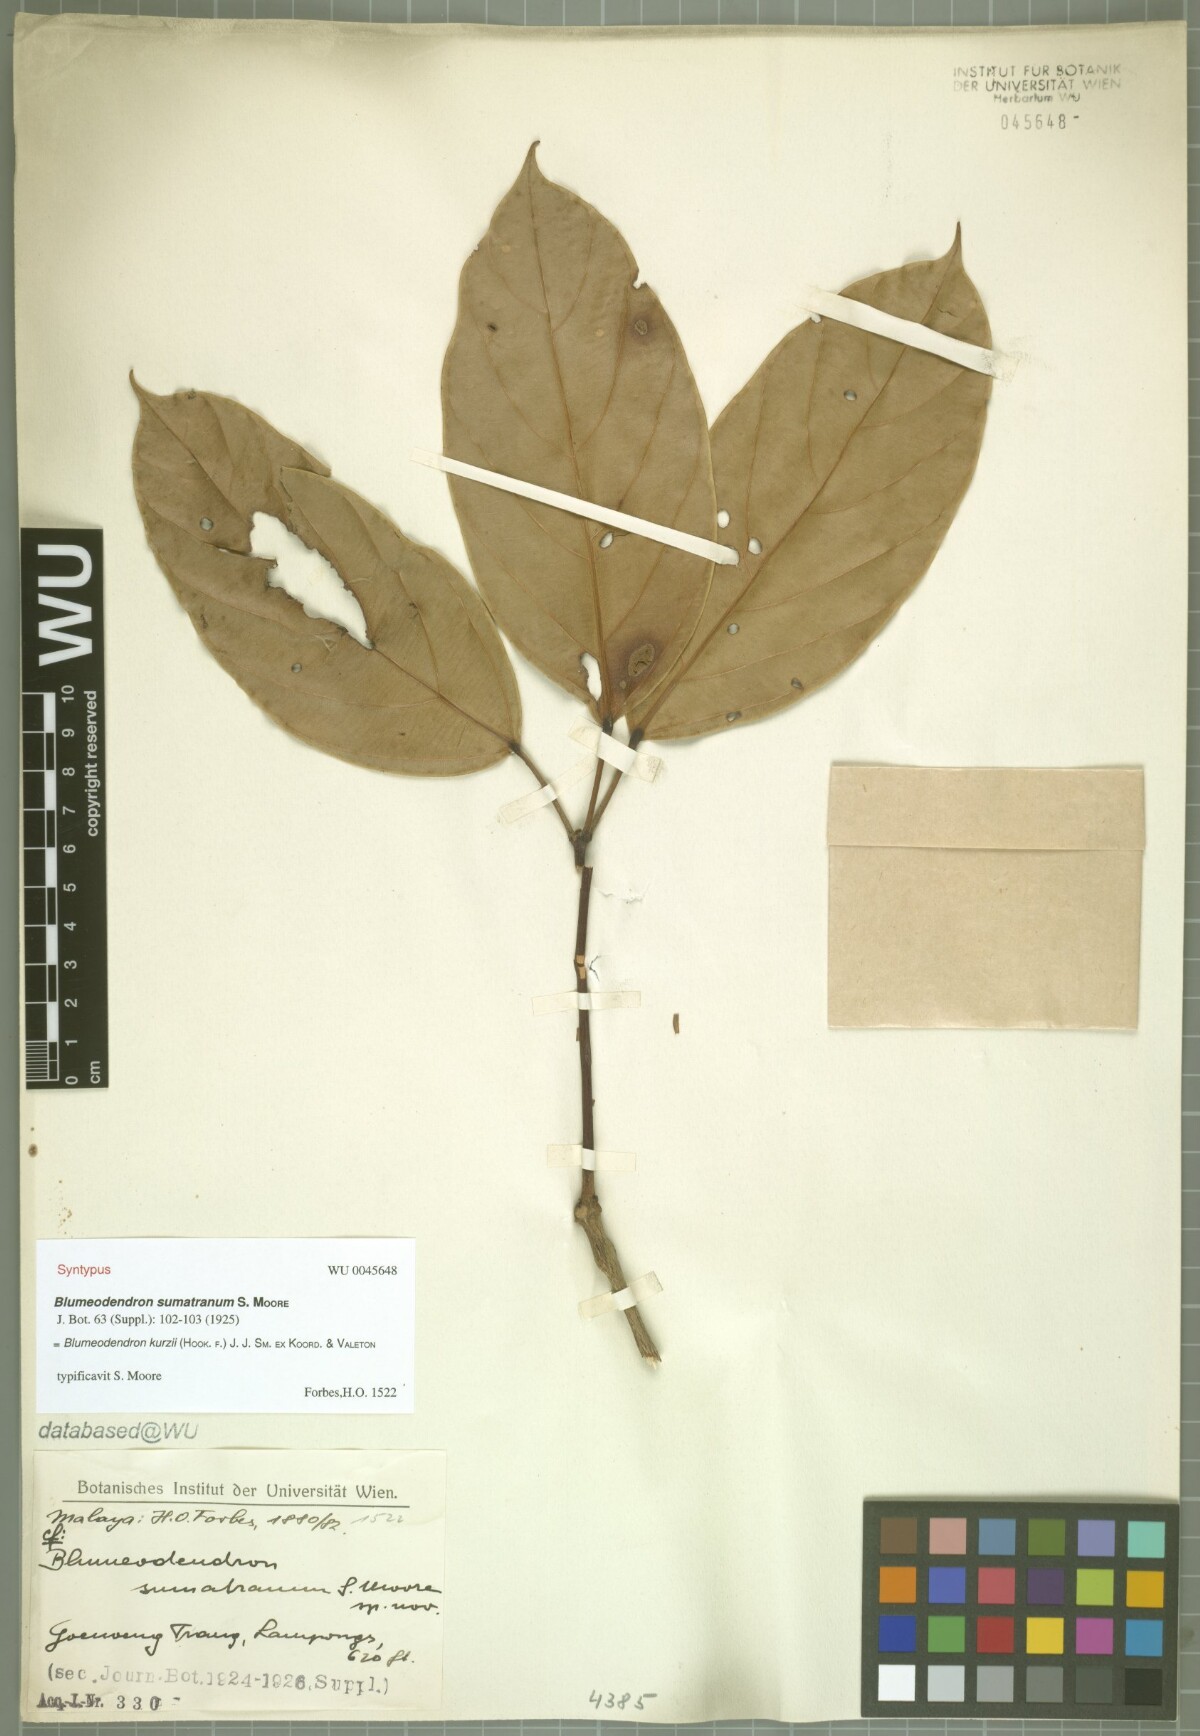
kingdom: Plantae
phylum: Tracheophyta
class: Magnoliopsida
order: Malpighiales
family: Euphorbiaceae
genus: Blumeodendron
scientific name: Blumeodendron kurzii
